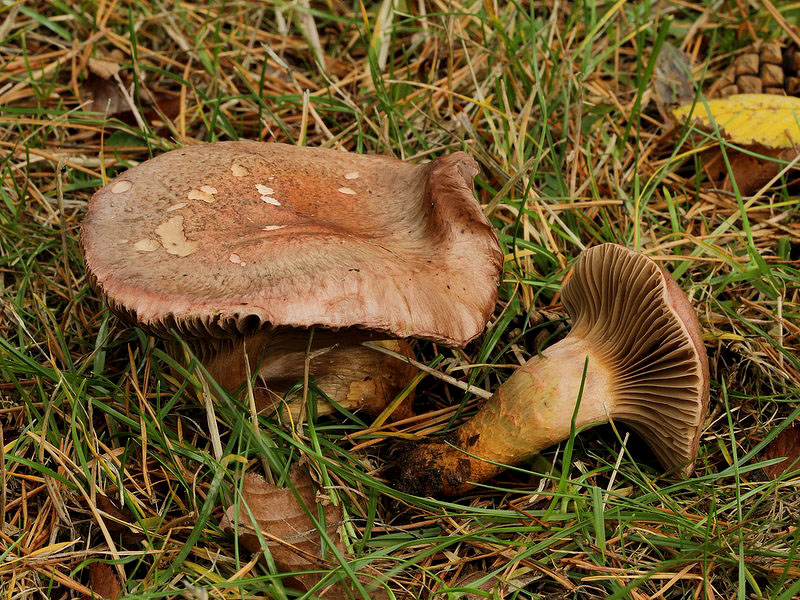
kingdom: Fungi
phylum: Basidiomycota
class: Agaricomycetes
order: Boletales
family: Gomphidiaceae
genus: Chroogomphus
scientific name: Chroogomphus rutilus
